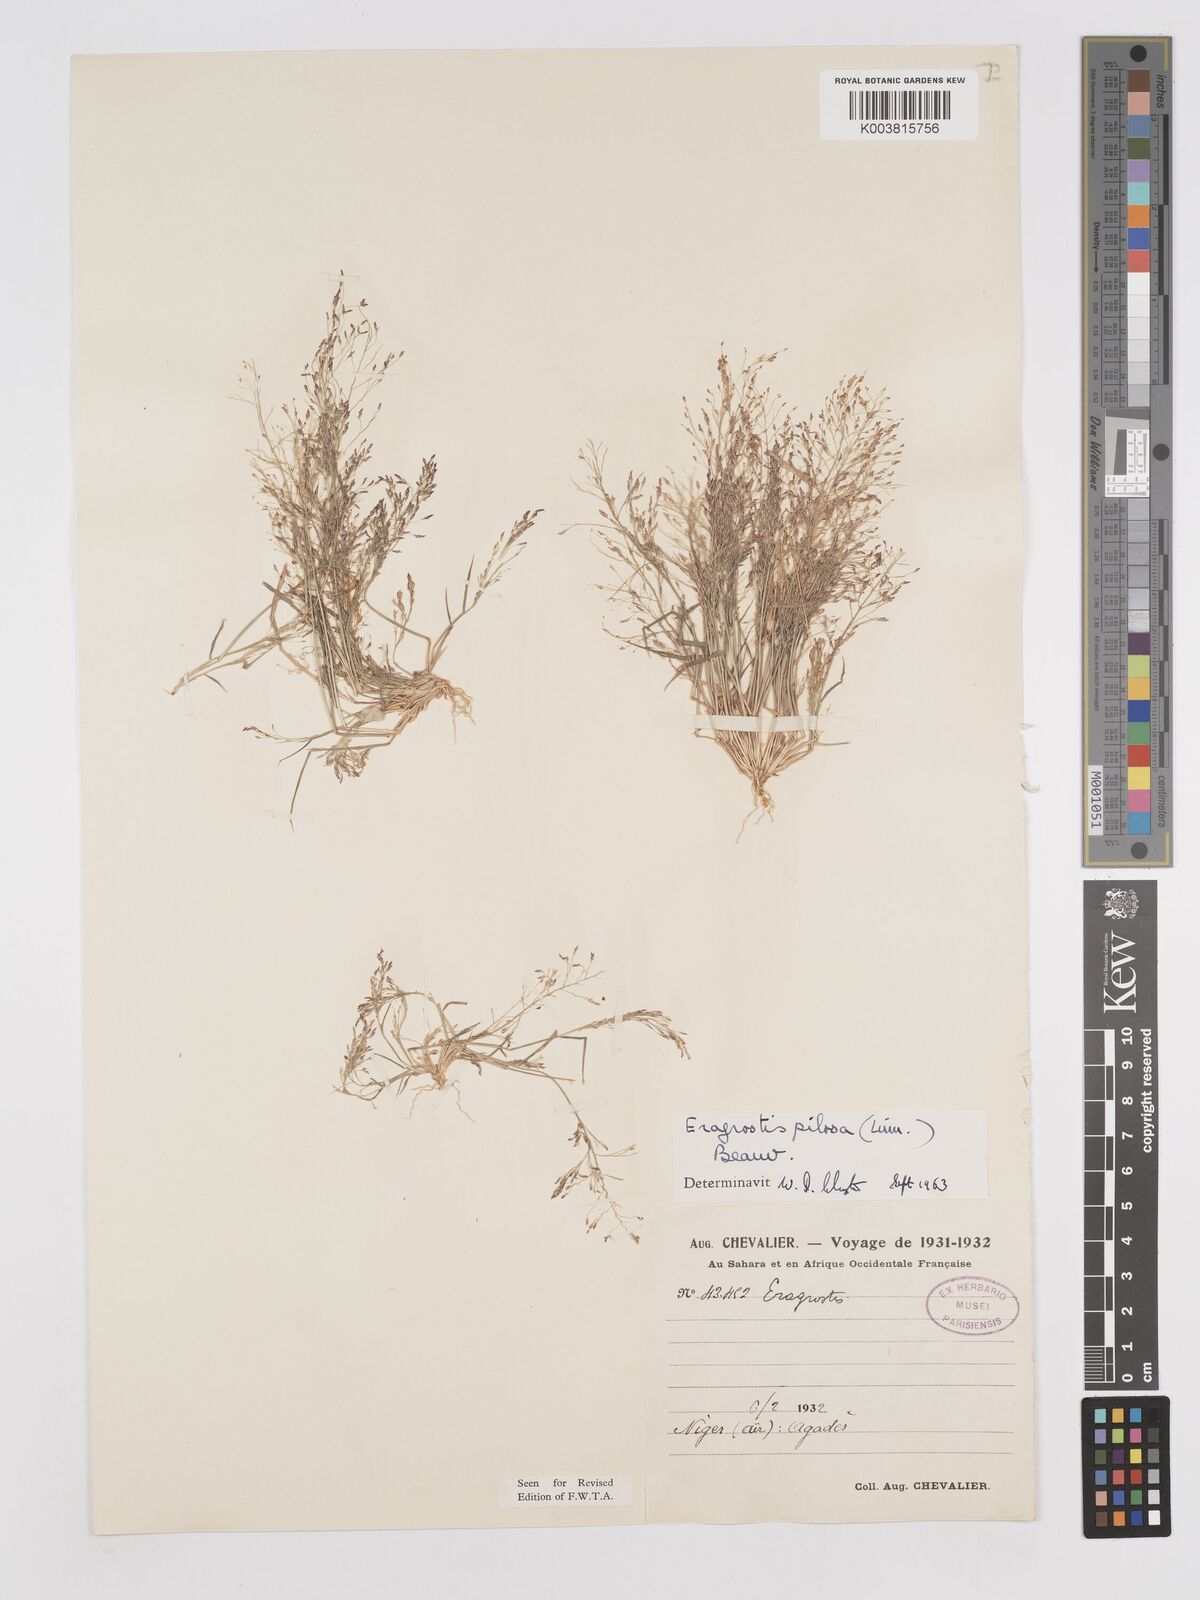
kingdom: Plantae
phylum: Tracheophyta
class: Liliopsida
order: Poales
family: Poaceae
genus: Eragrostis
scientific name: Eragrostis pilosa
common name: Indian lovegrass
